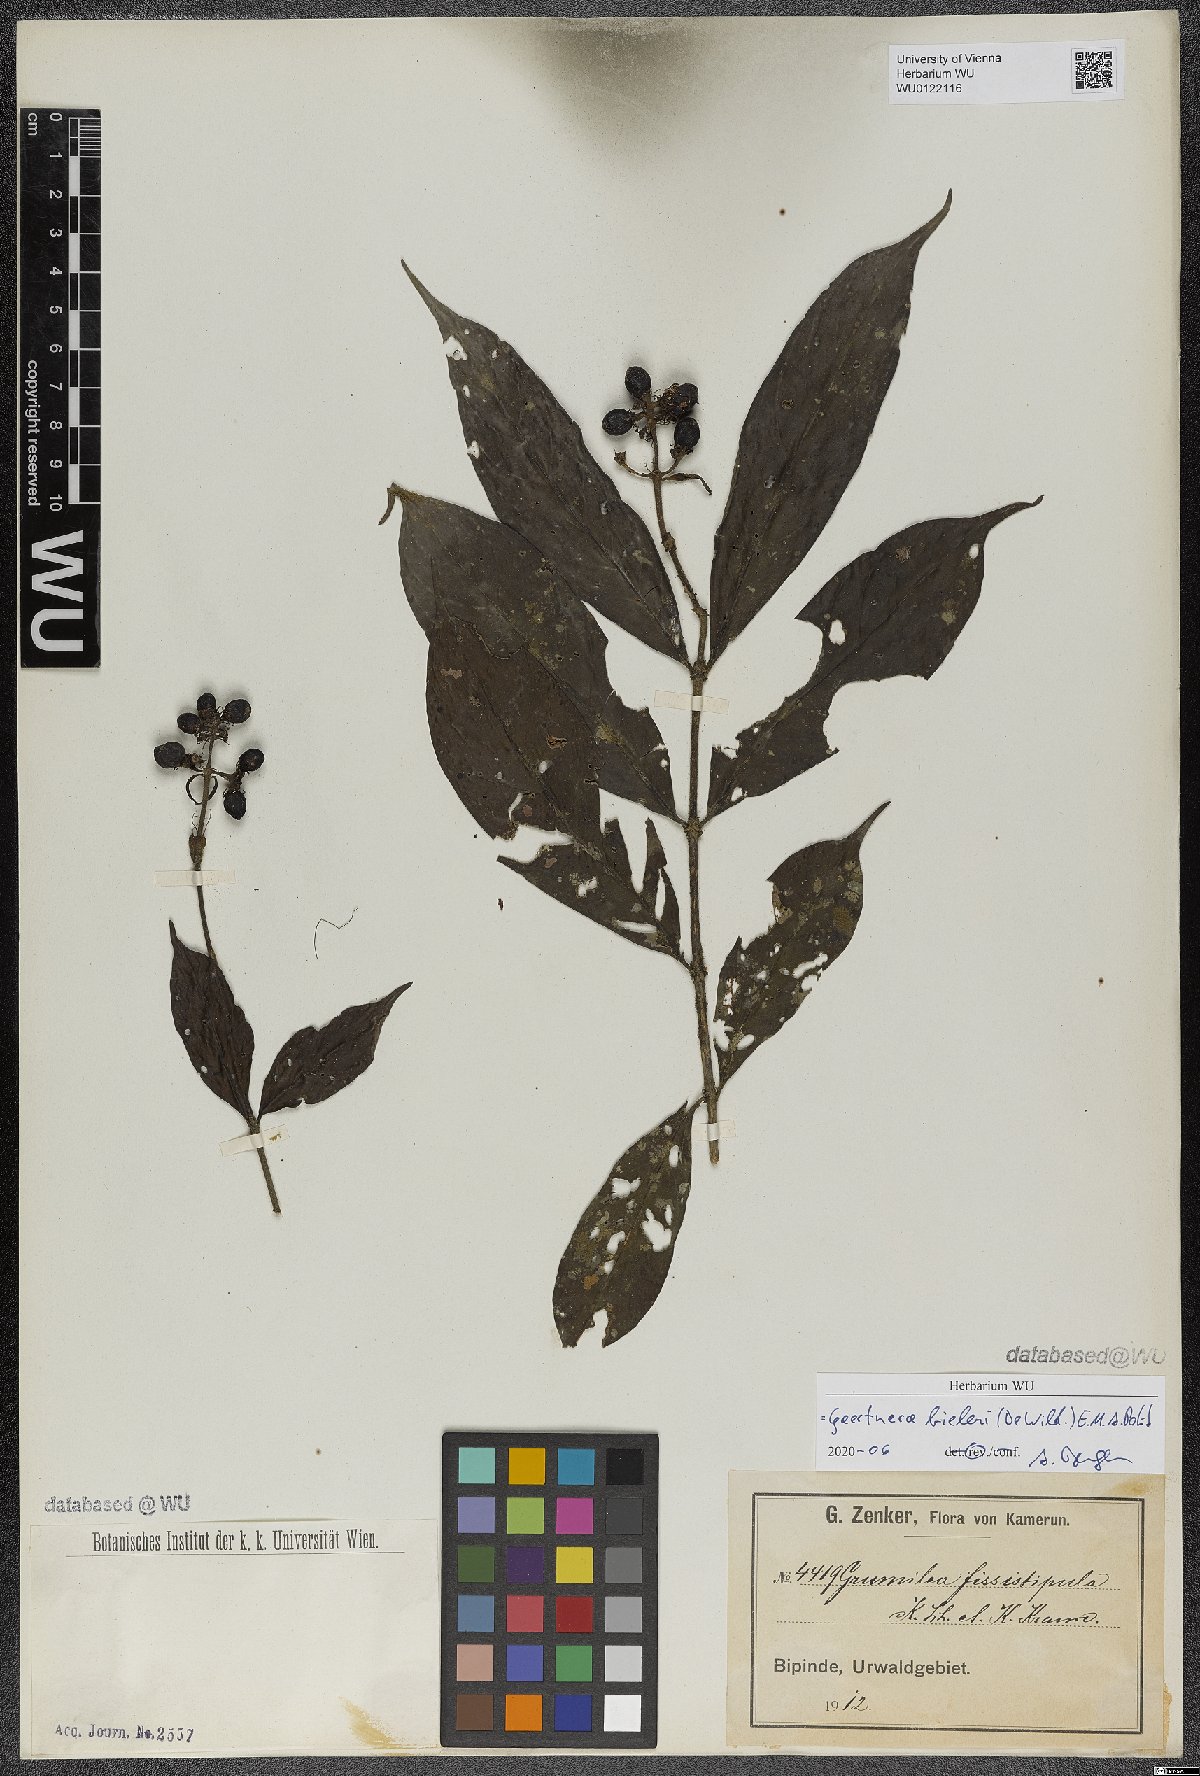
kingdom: Plantae
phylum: Tracheophyta
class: Magnoliopsida
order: Gentianales
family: Rubiaceae
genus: Gaertnera
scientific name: Gaertnera bieleri
